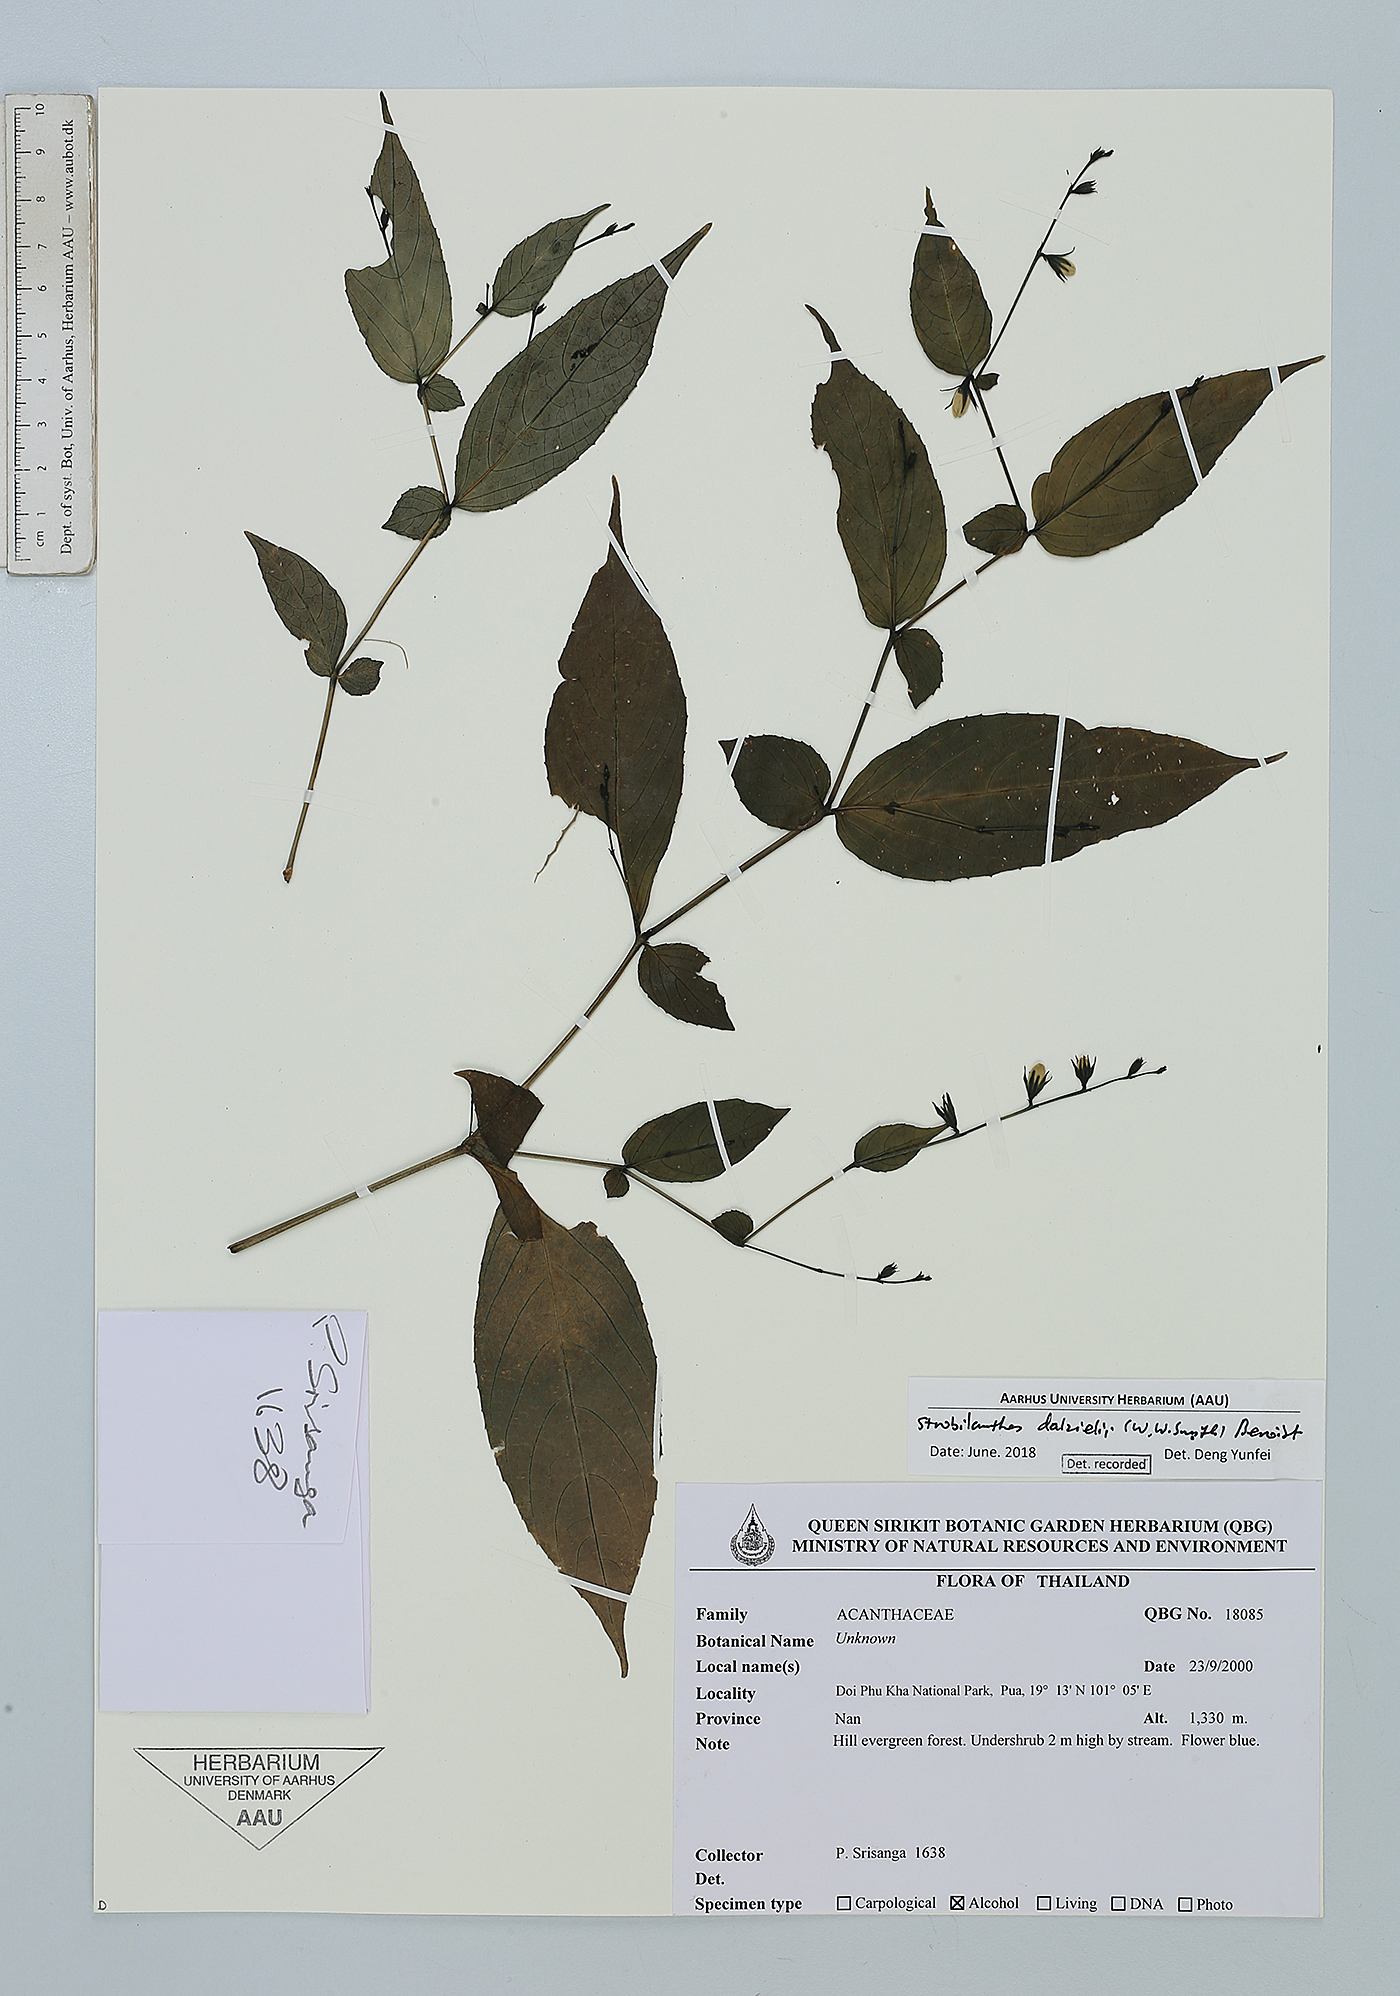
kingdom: Plantae
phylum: Tracheophyta
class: Magnoliopsida
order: Lamiales
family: Acanthaceae
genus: Strobilanthes
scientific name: Strobilanthes dalzielii
